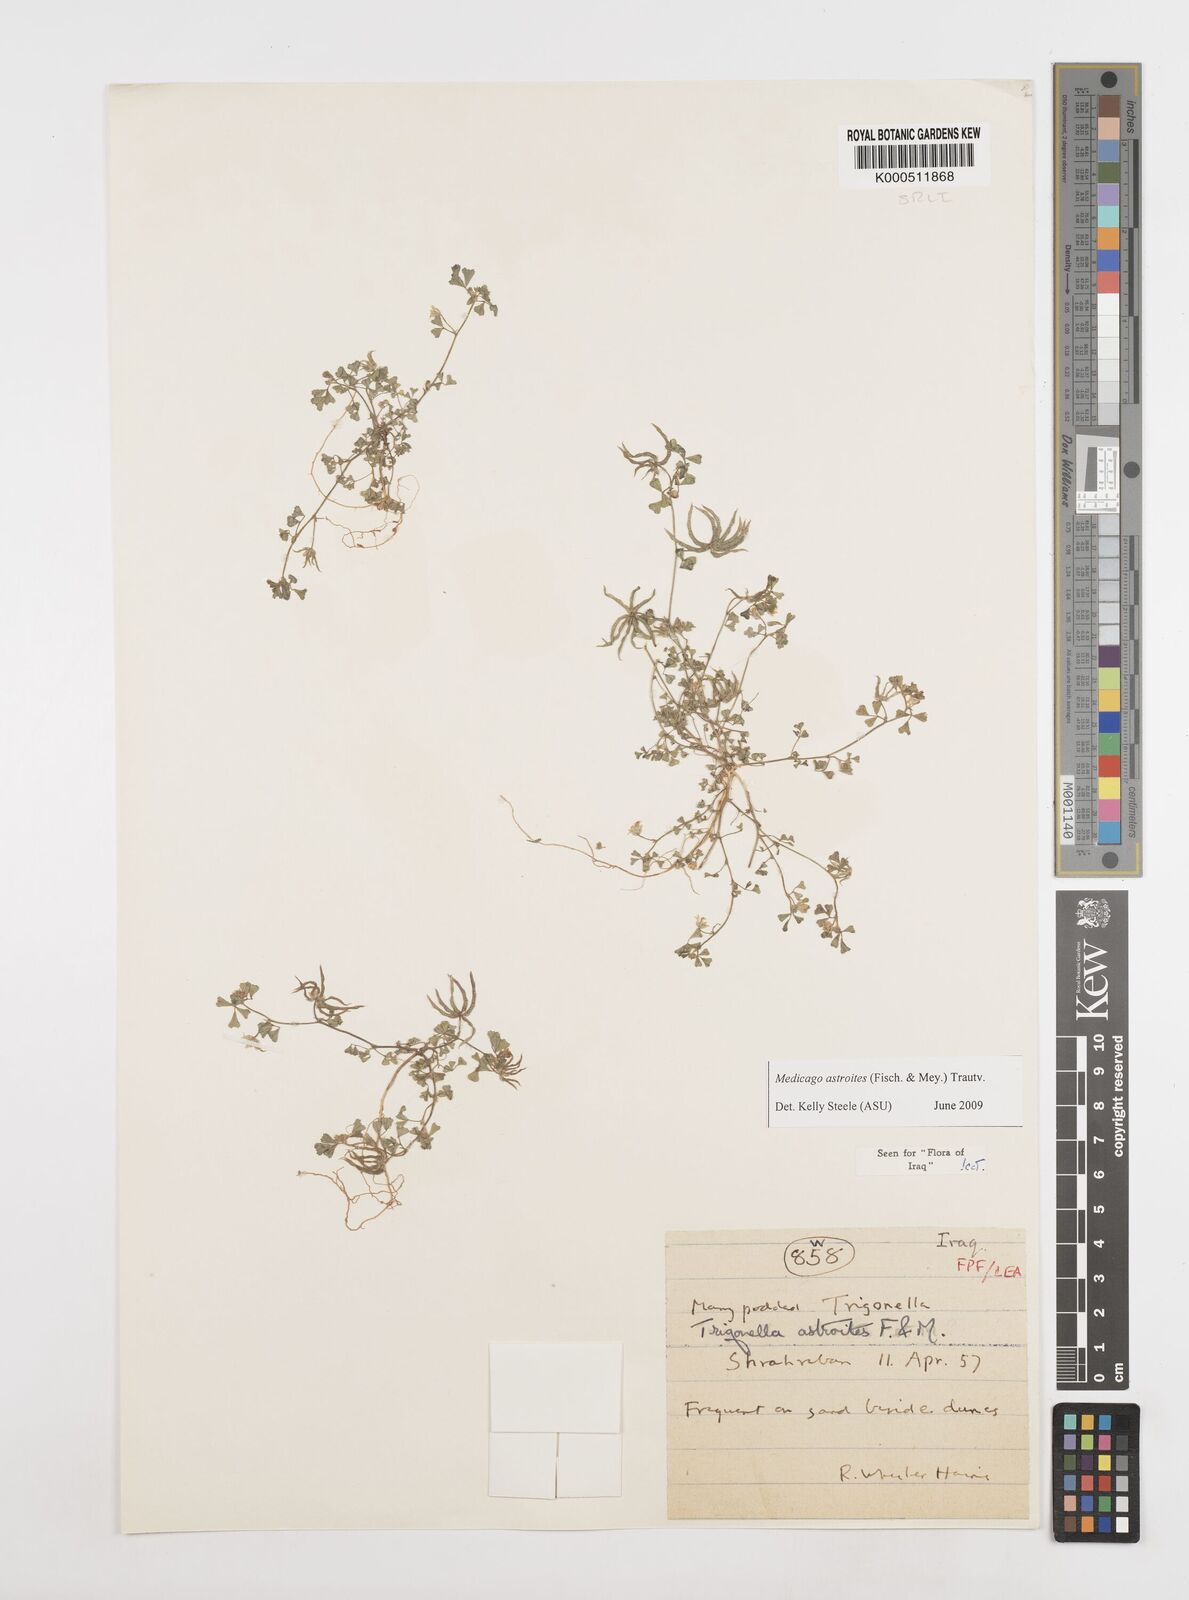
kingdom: Plantae
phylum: Tracheophyta
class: Magnoliopsida
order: Fabales
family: Fabaceae
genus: Medicago
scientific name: Medicago astroites
